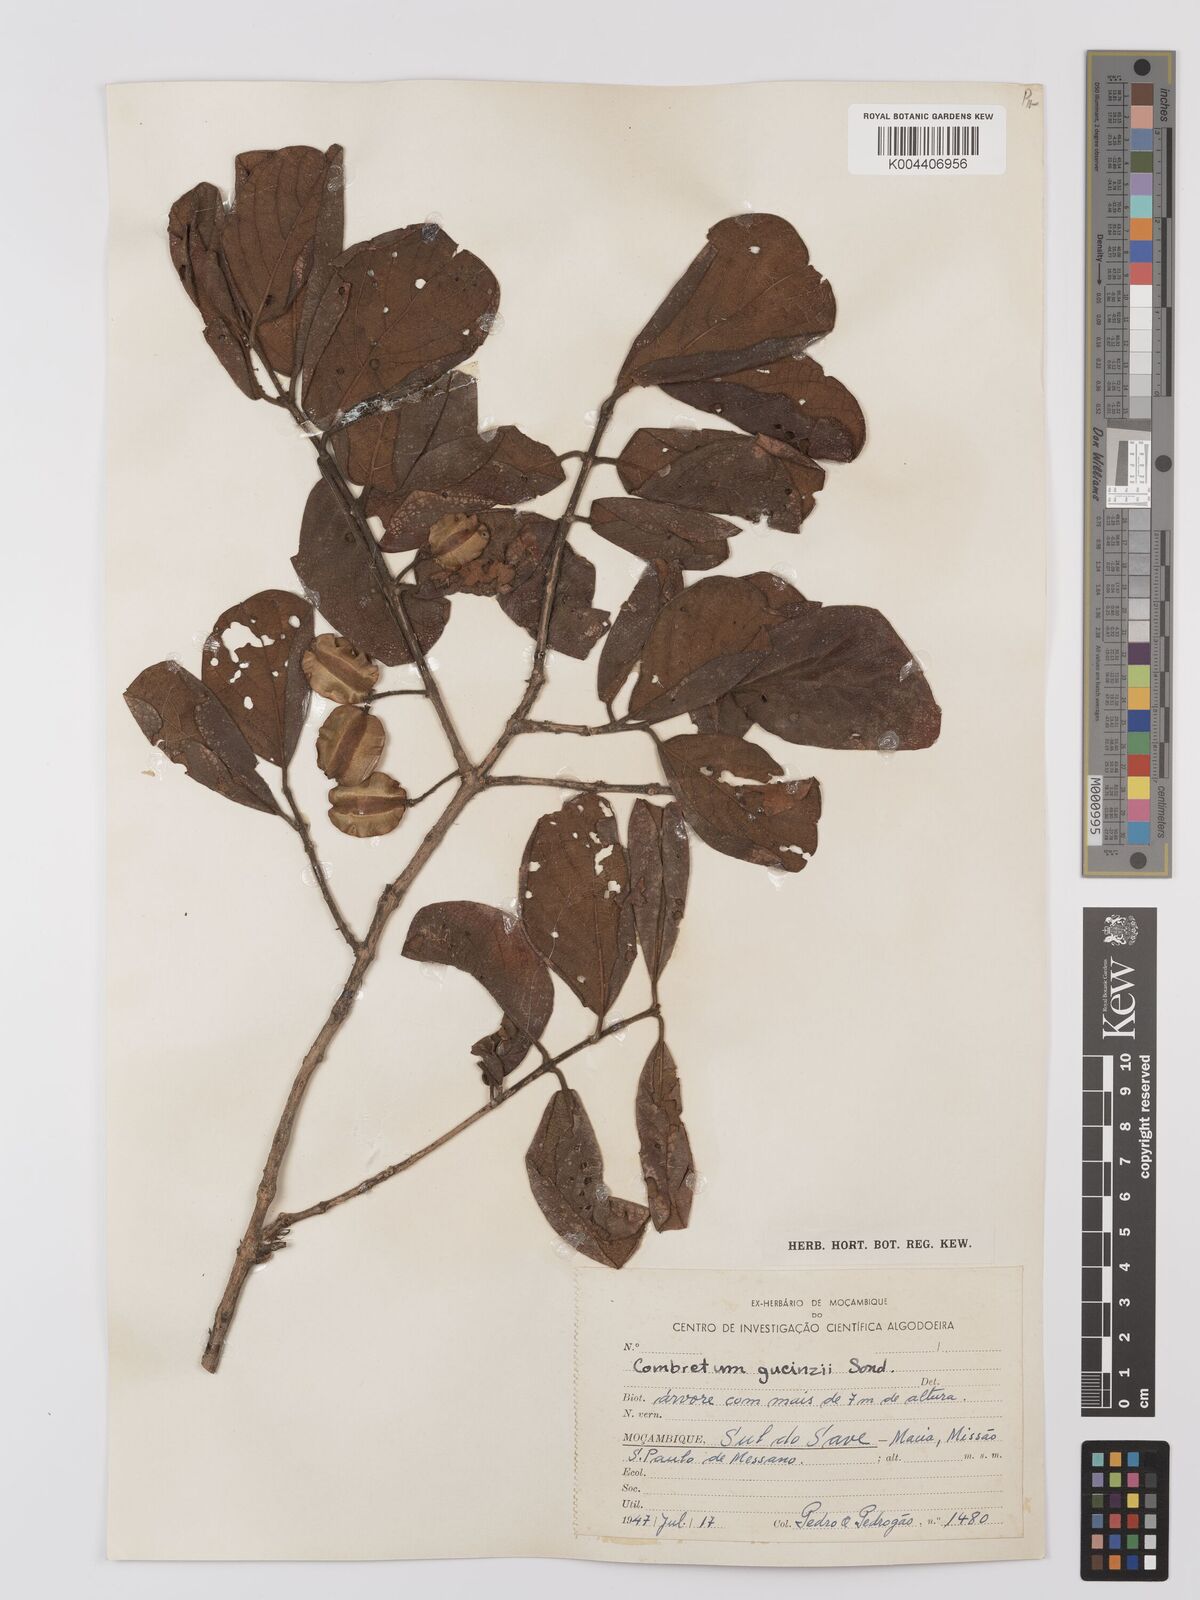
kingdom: Plantae
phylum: Tracheophyta
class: Magnoliopsida
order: Myrtales
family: Combretaceae
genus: Combretum
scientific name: Combretum
